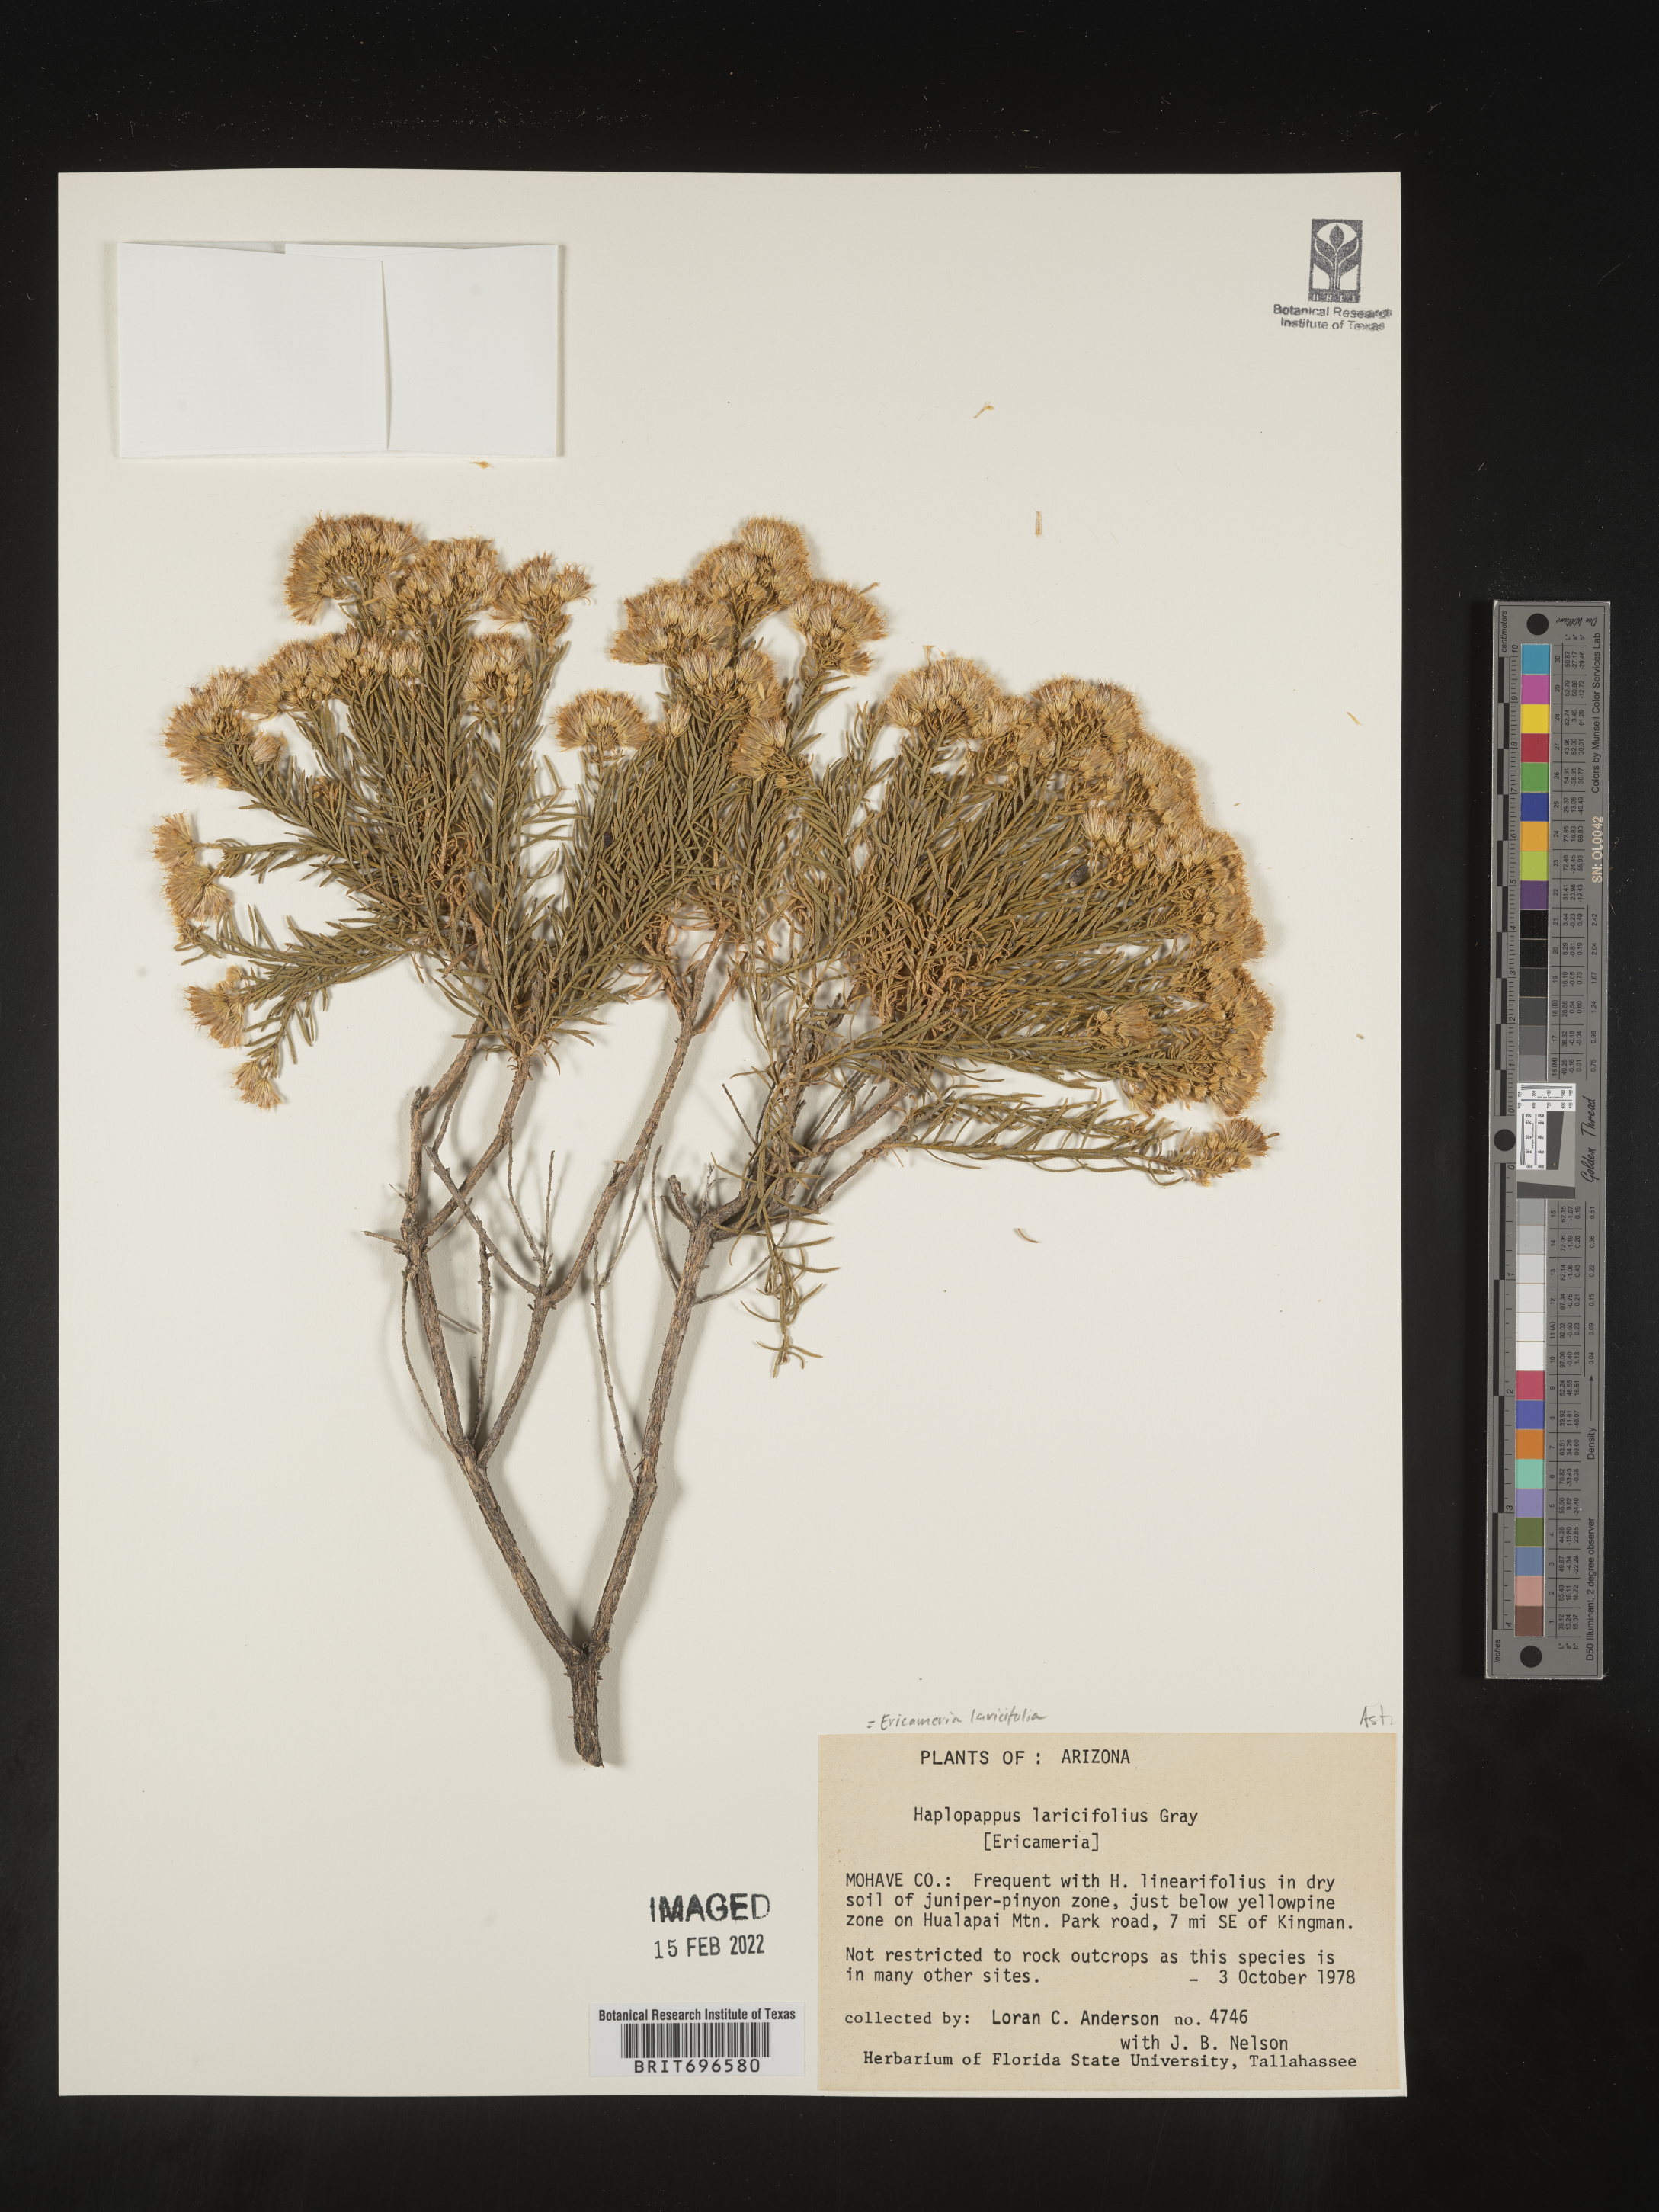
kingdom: Plantae
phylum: Tracheophyta
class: Magnoliopsida
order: Asterales
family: Asteraceae
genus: Ericameria
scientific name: Ericameria laricifolia
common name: Turpentine-bush
